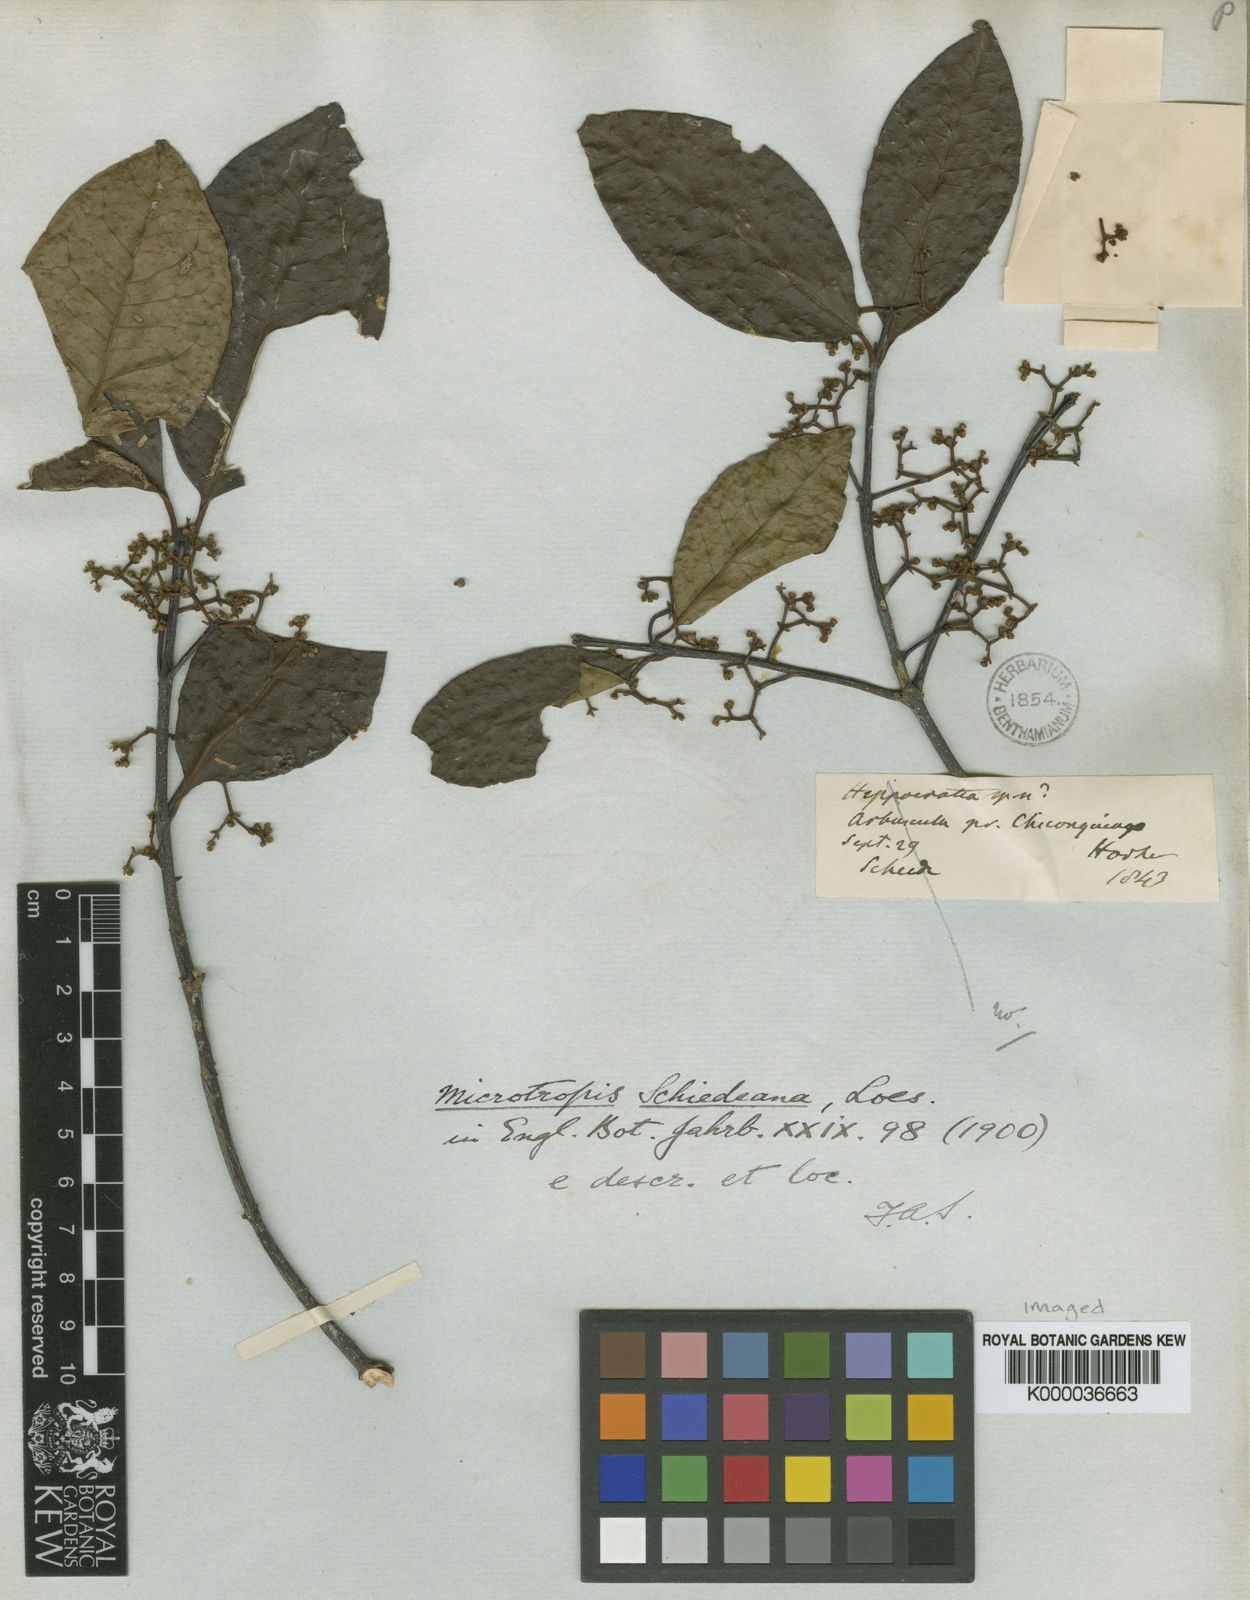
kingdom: Plantae
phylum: Tracheophyta
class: Magnoliopsida
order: Celastrales
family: Celastraceae
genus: Quetzalia
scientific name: Quetzalia schiedeana
